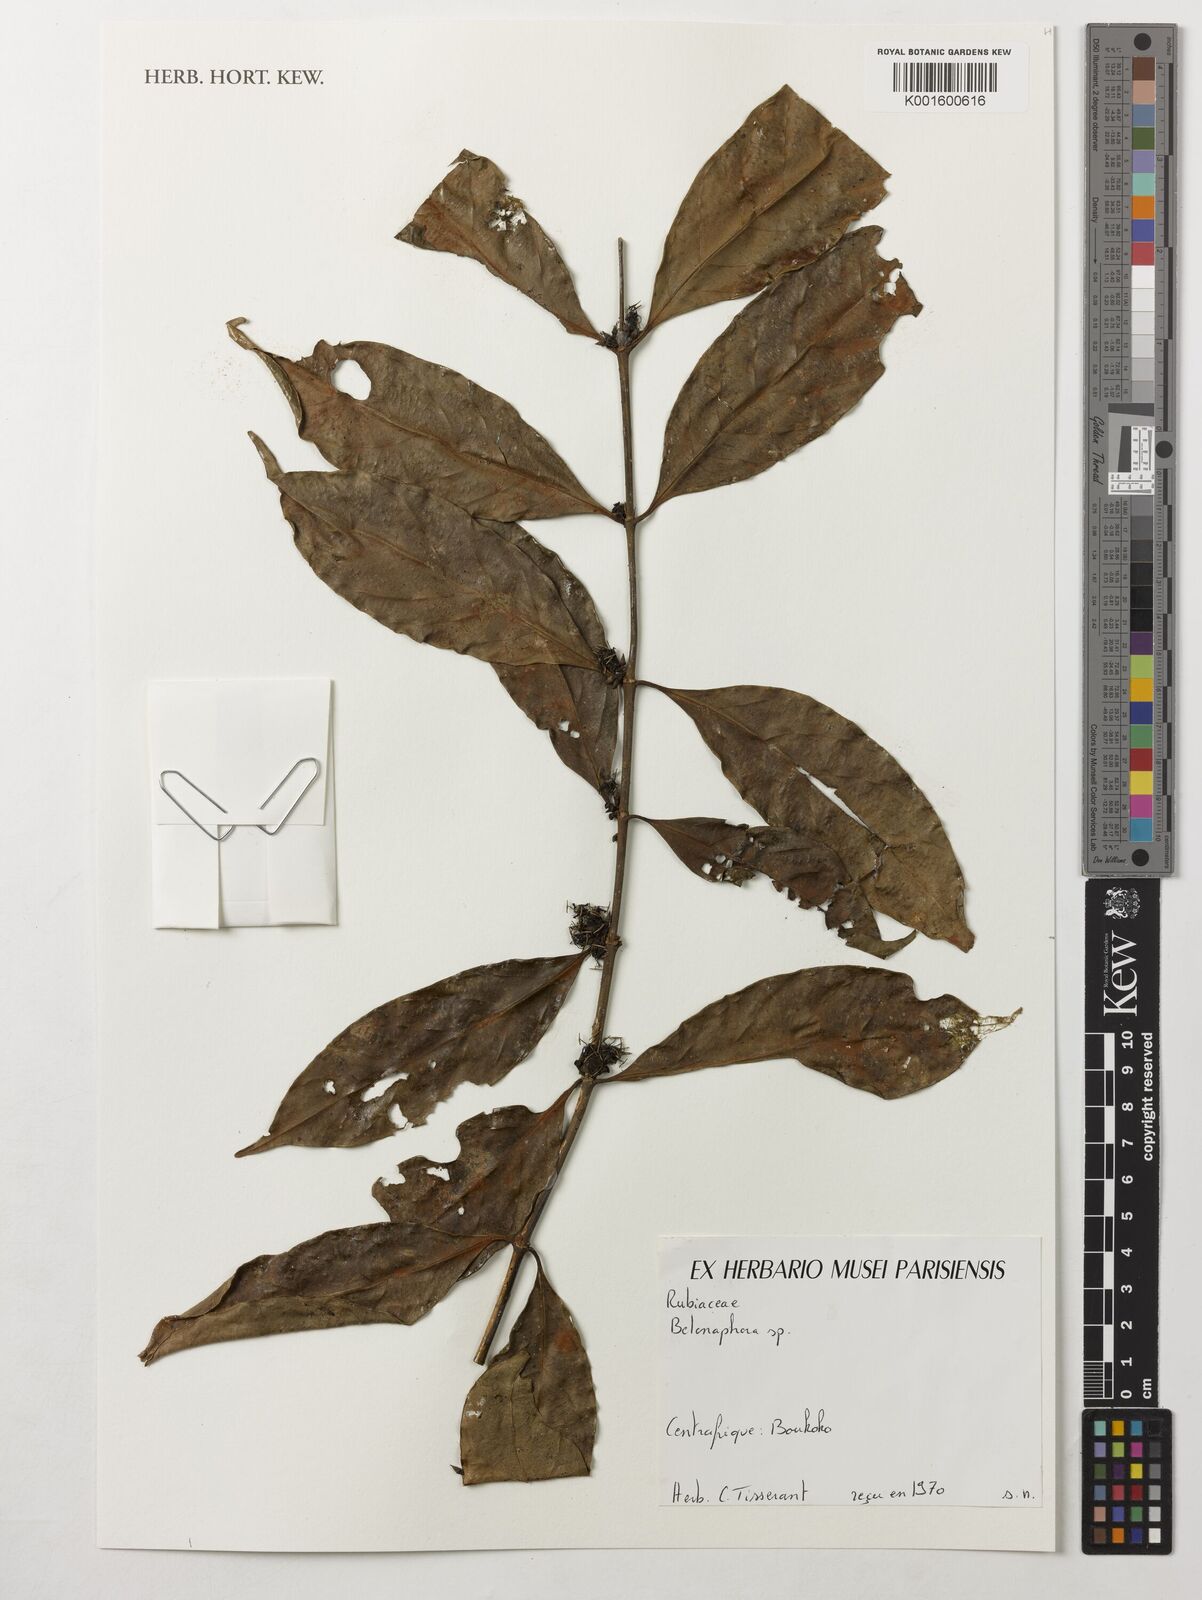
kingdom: Plantae
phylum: Tracheophyta
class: Magnoliopsida
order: Gentianales
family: Rubiaceae
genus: Belonophora
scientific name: Belonophora
